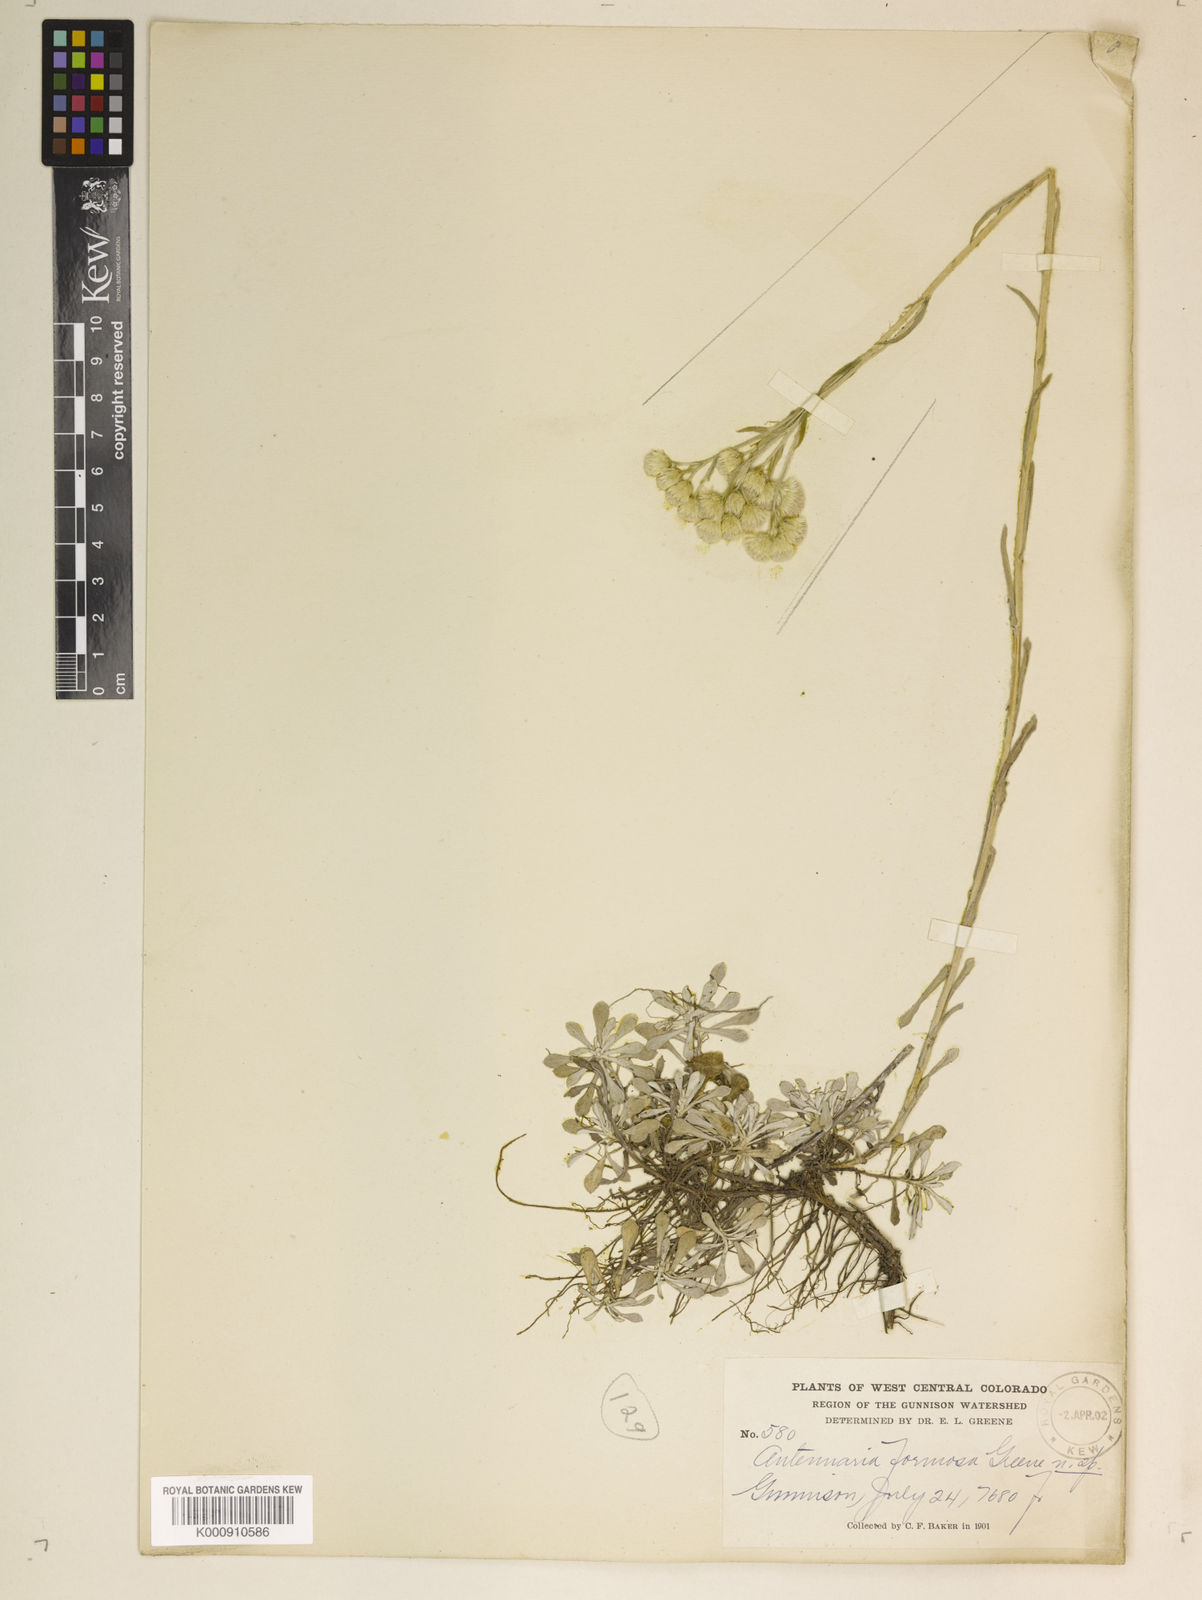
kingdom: Plantae
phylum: Tracheophyta
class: Magnoliopsida
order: Asterales
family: Asteraceae
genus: Antennaria
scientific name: Antennaria rosea
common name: Rosy pussytoes
